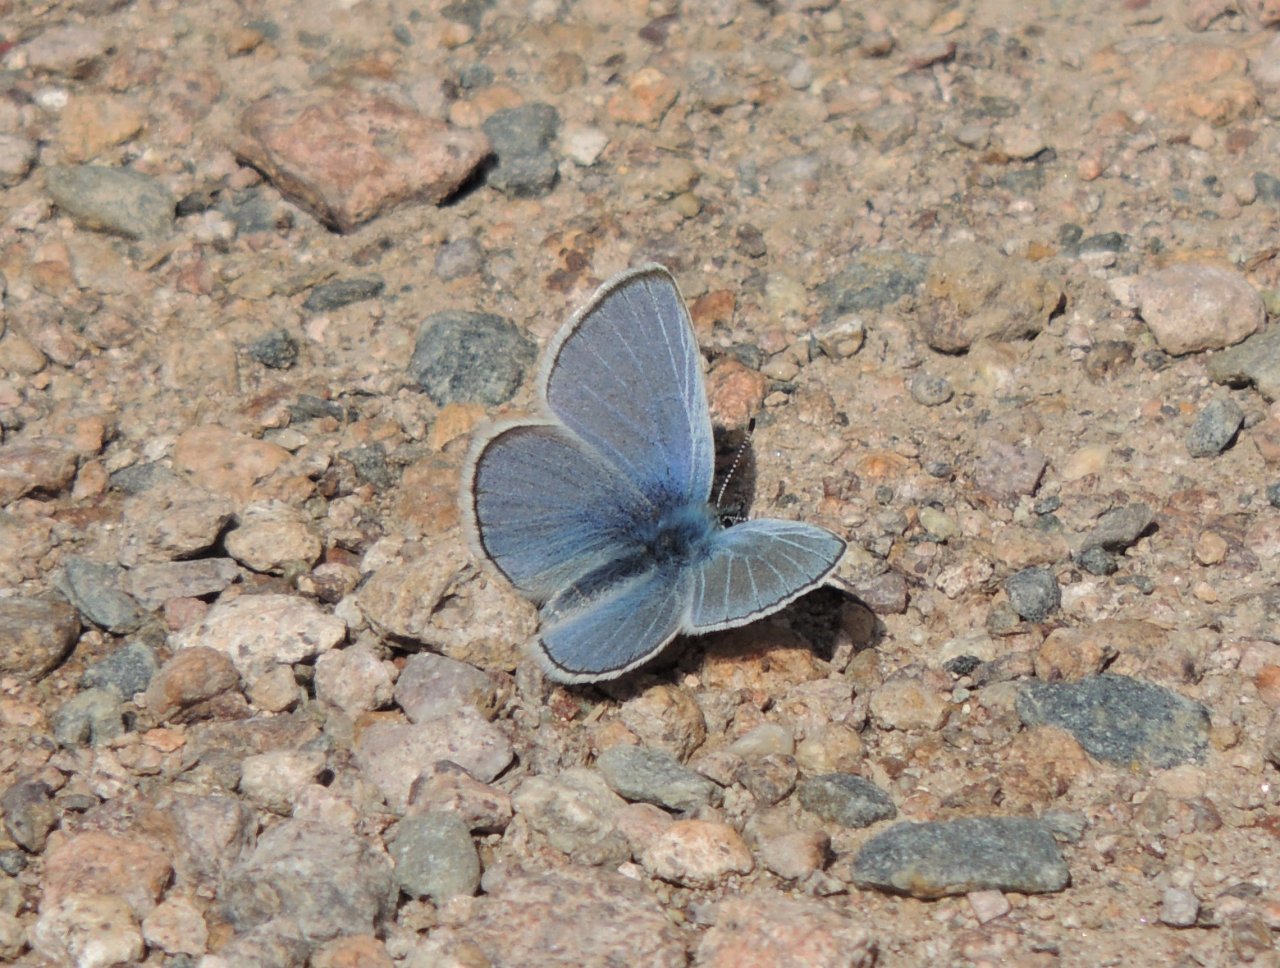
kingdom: Animalia
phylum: Arthropoda
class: Insecta
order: Lepidoptera
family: Lycaenidae
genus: Glaucopsyche
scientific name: Glaucopsyche lygdamus
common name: Silvery Blue
